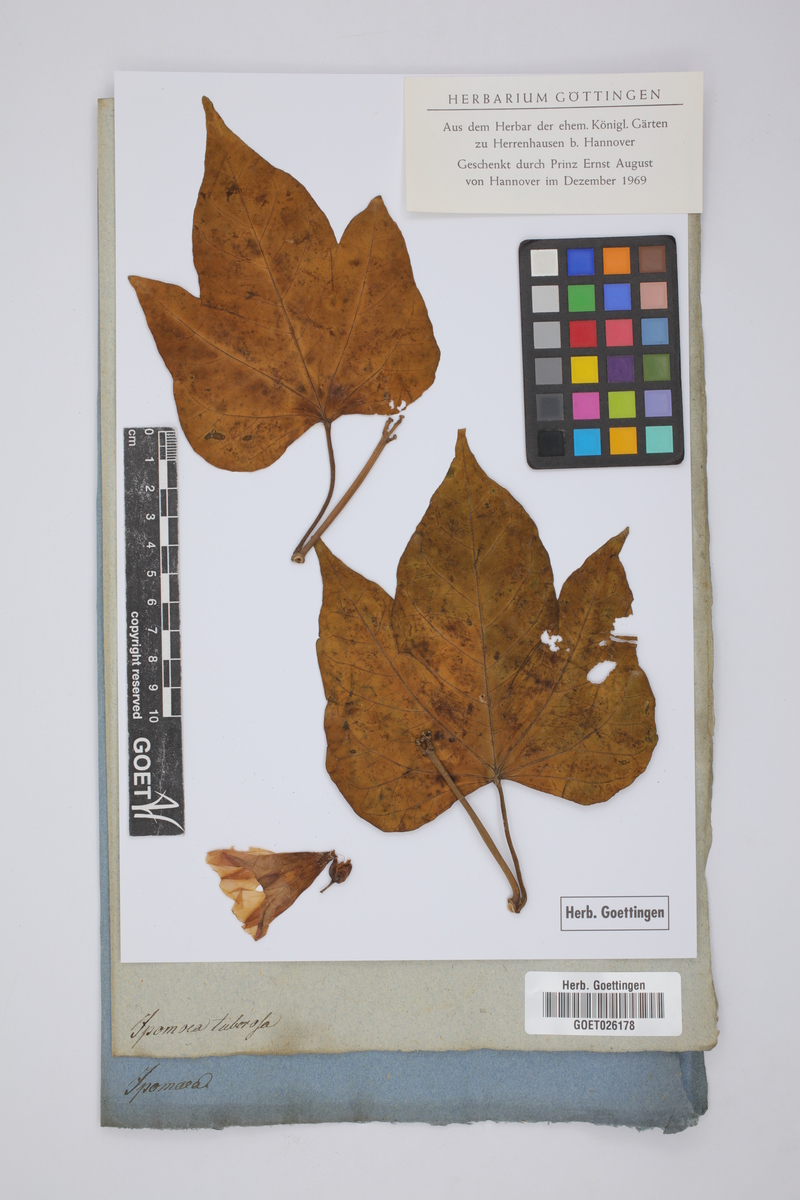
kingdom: Plantae
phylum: Tracheophyta
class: Magnoliopsida
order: Solanales
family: Convolvulaceae
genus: Distimake
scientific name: Distimake tuberosus
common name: Spanish arborvine
